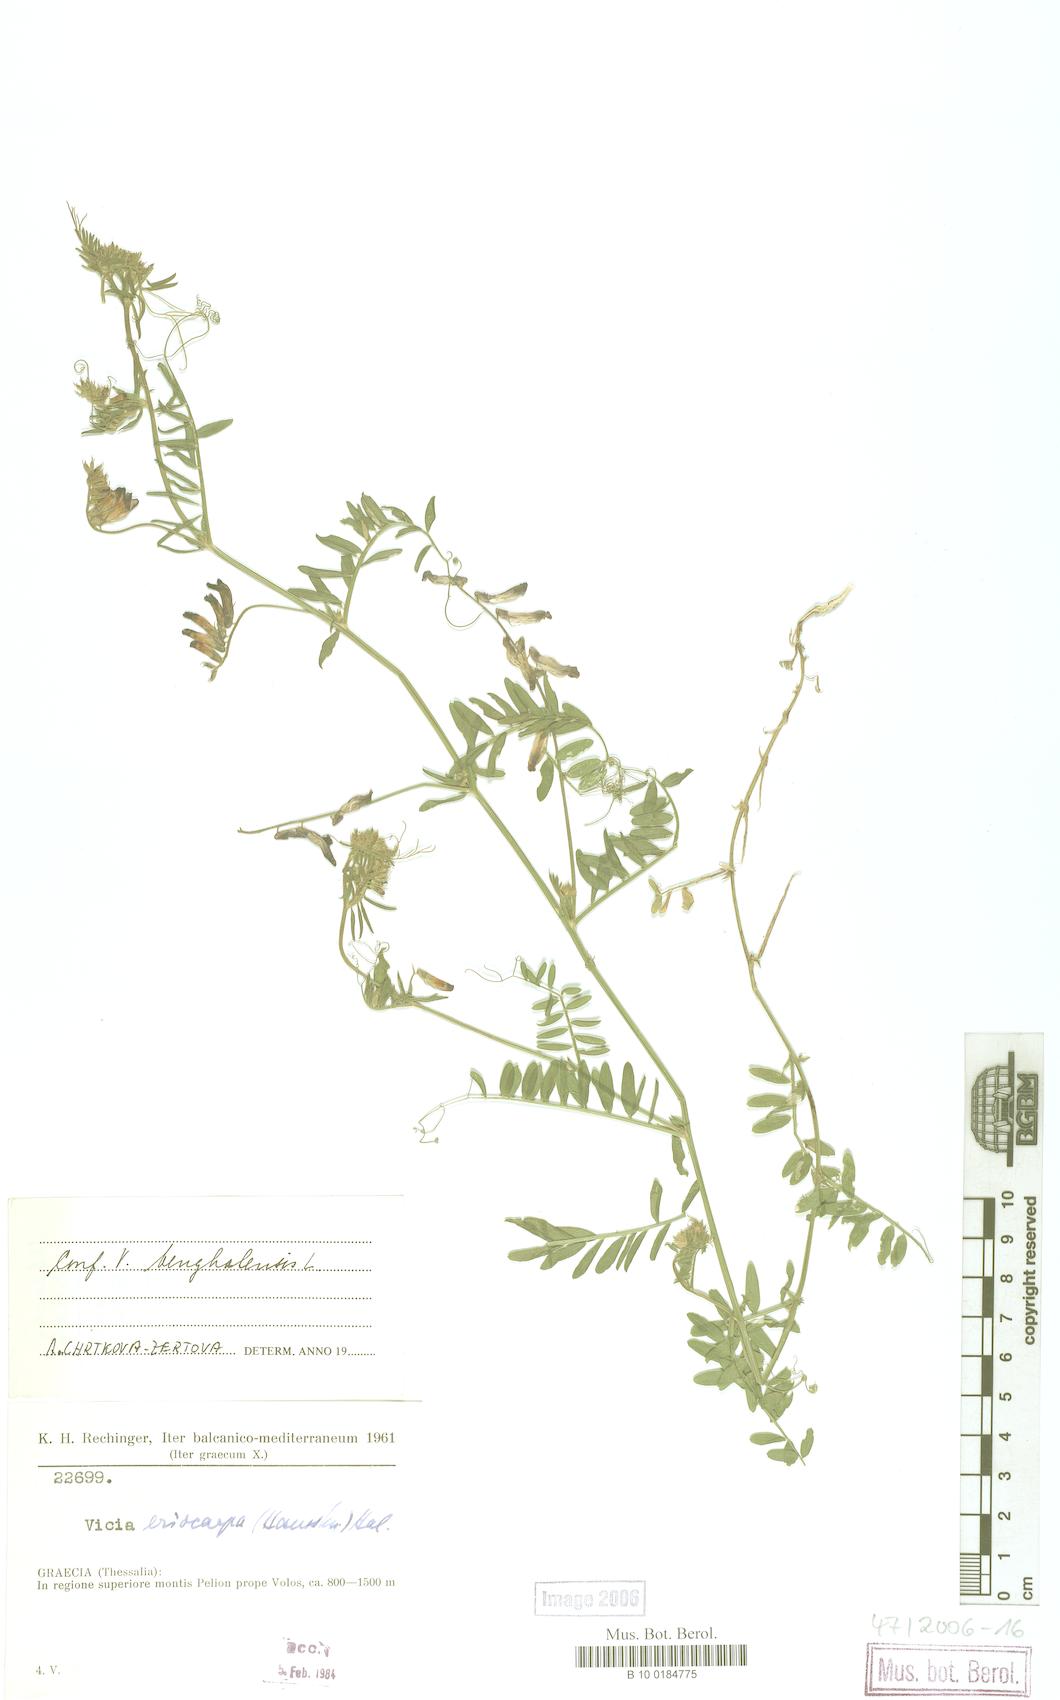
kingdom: Plantae
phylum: Tracheophyta
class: Magnoliopsida
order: Fabales
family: Fabaceae
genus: Medicago
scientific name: Medicago
